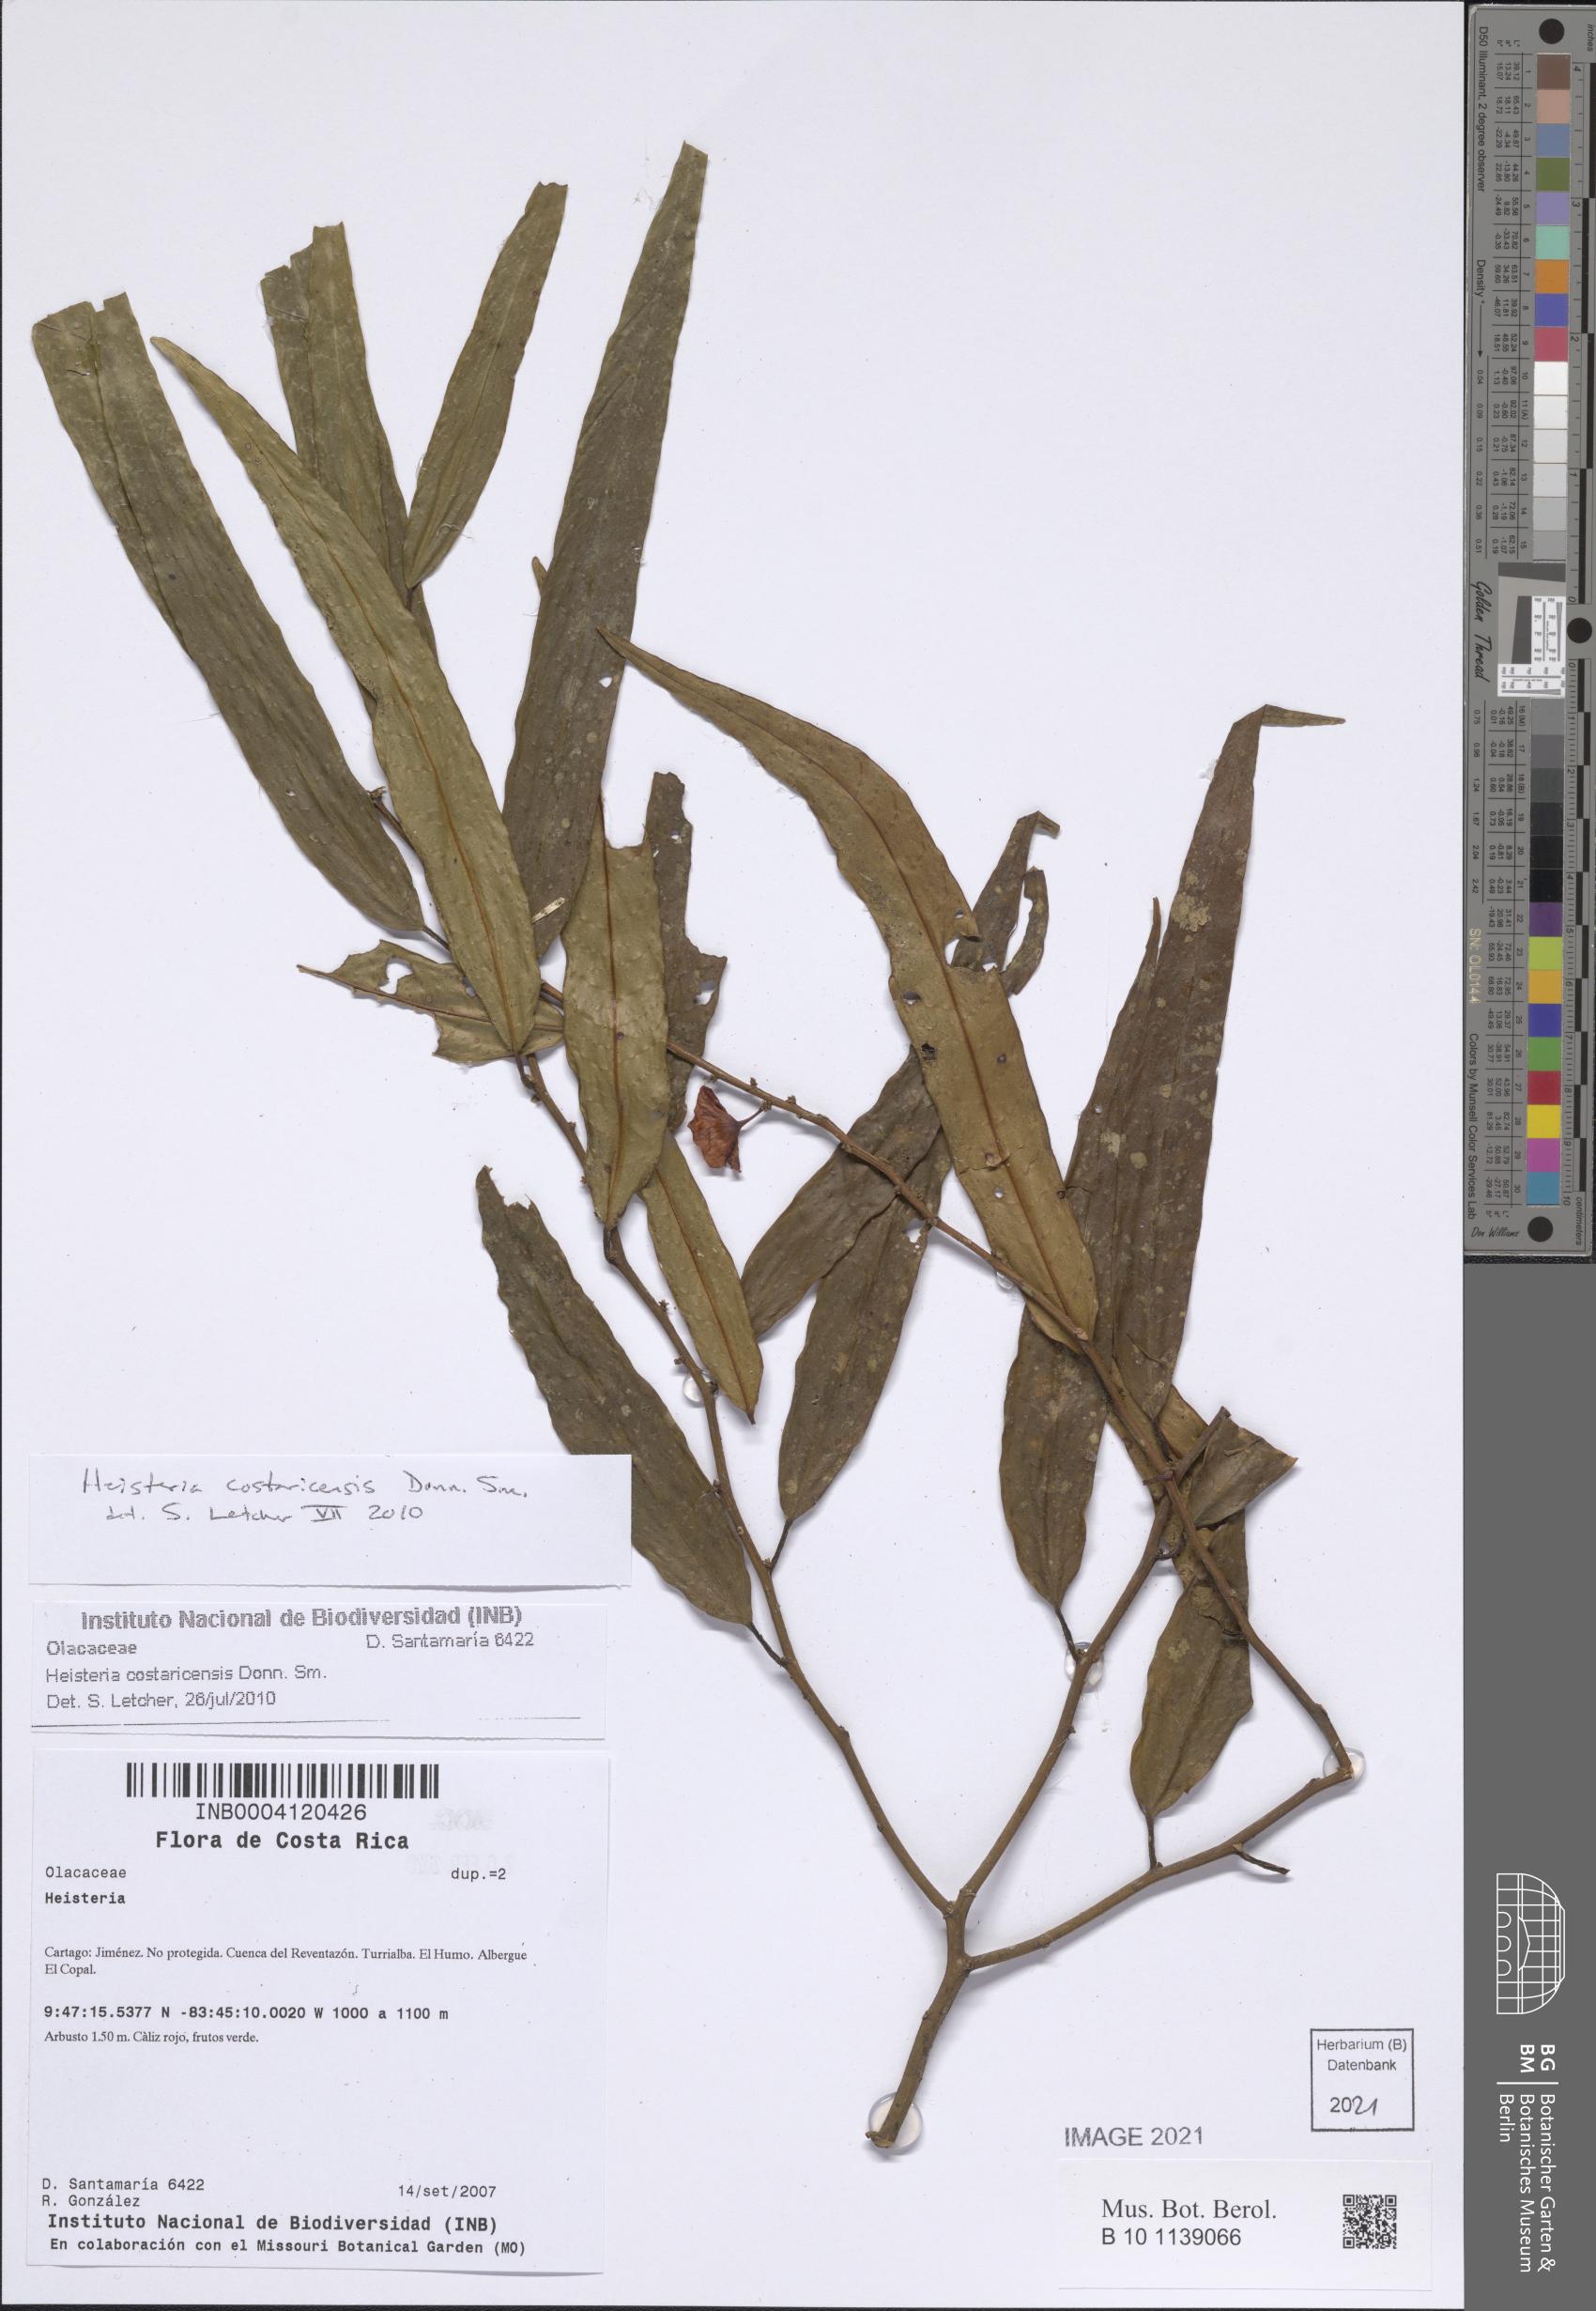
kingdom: Plantae
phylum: Tracheophyta
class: Magnoliopsida
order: Santalales
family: Erythropalaceae
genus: Heisteria
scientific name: Heisteria macrophylla
